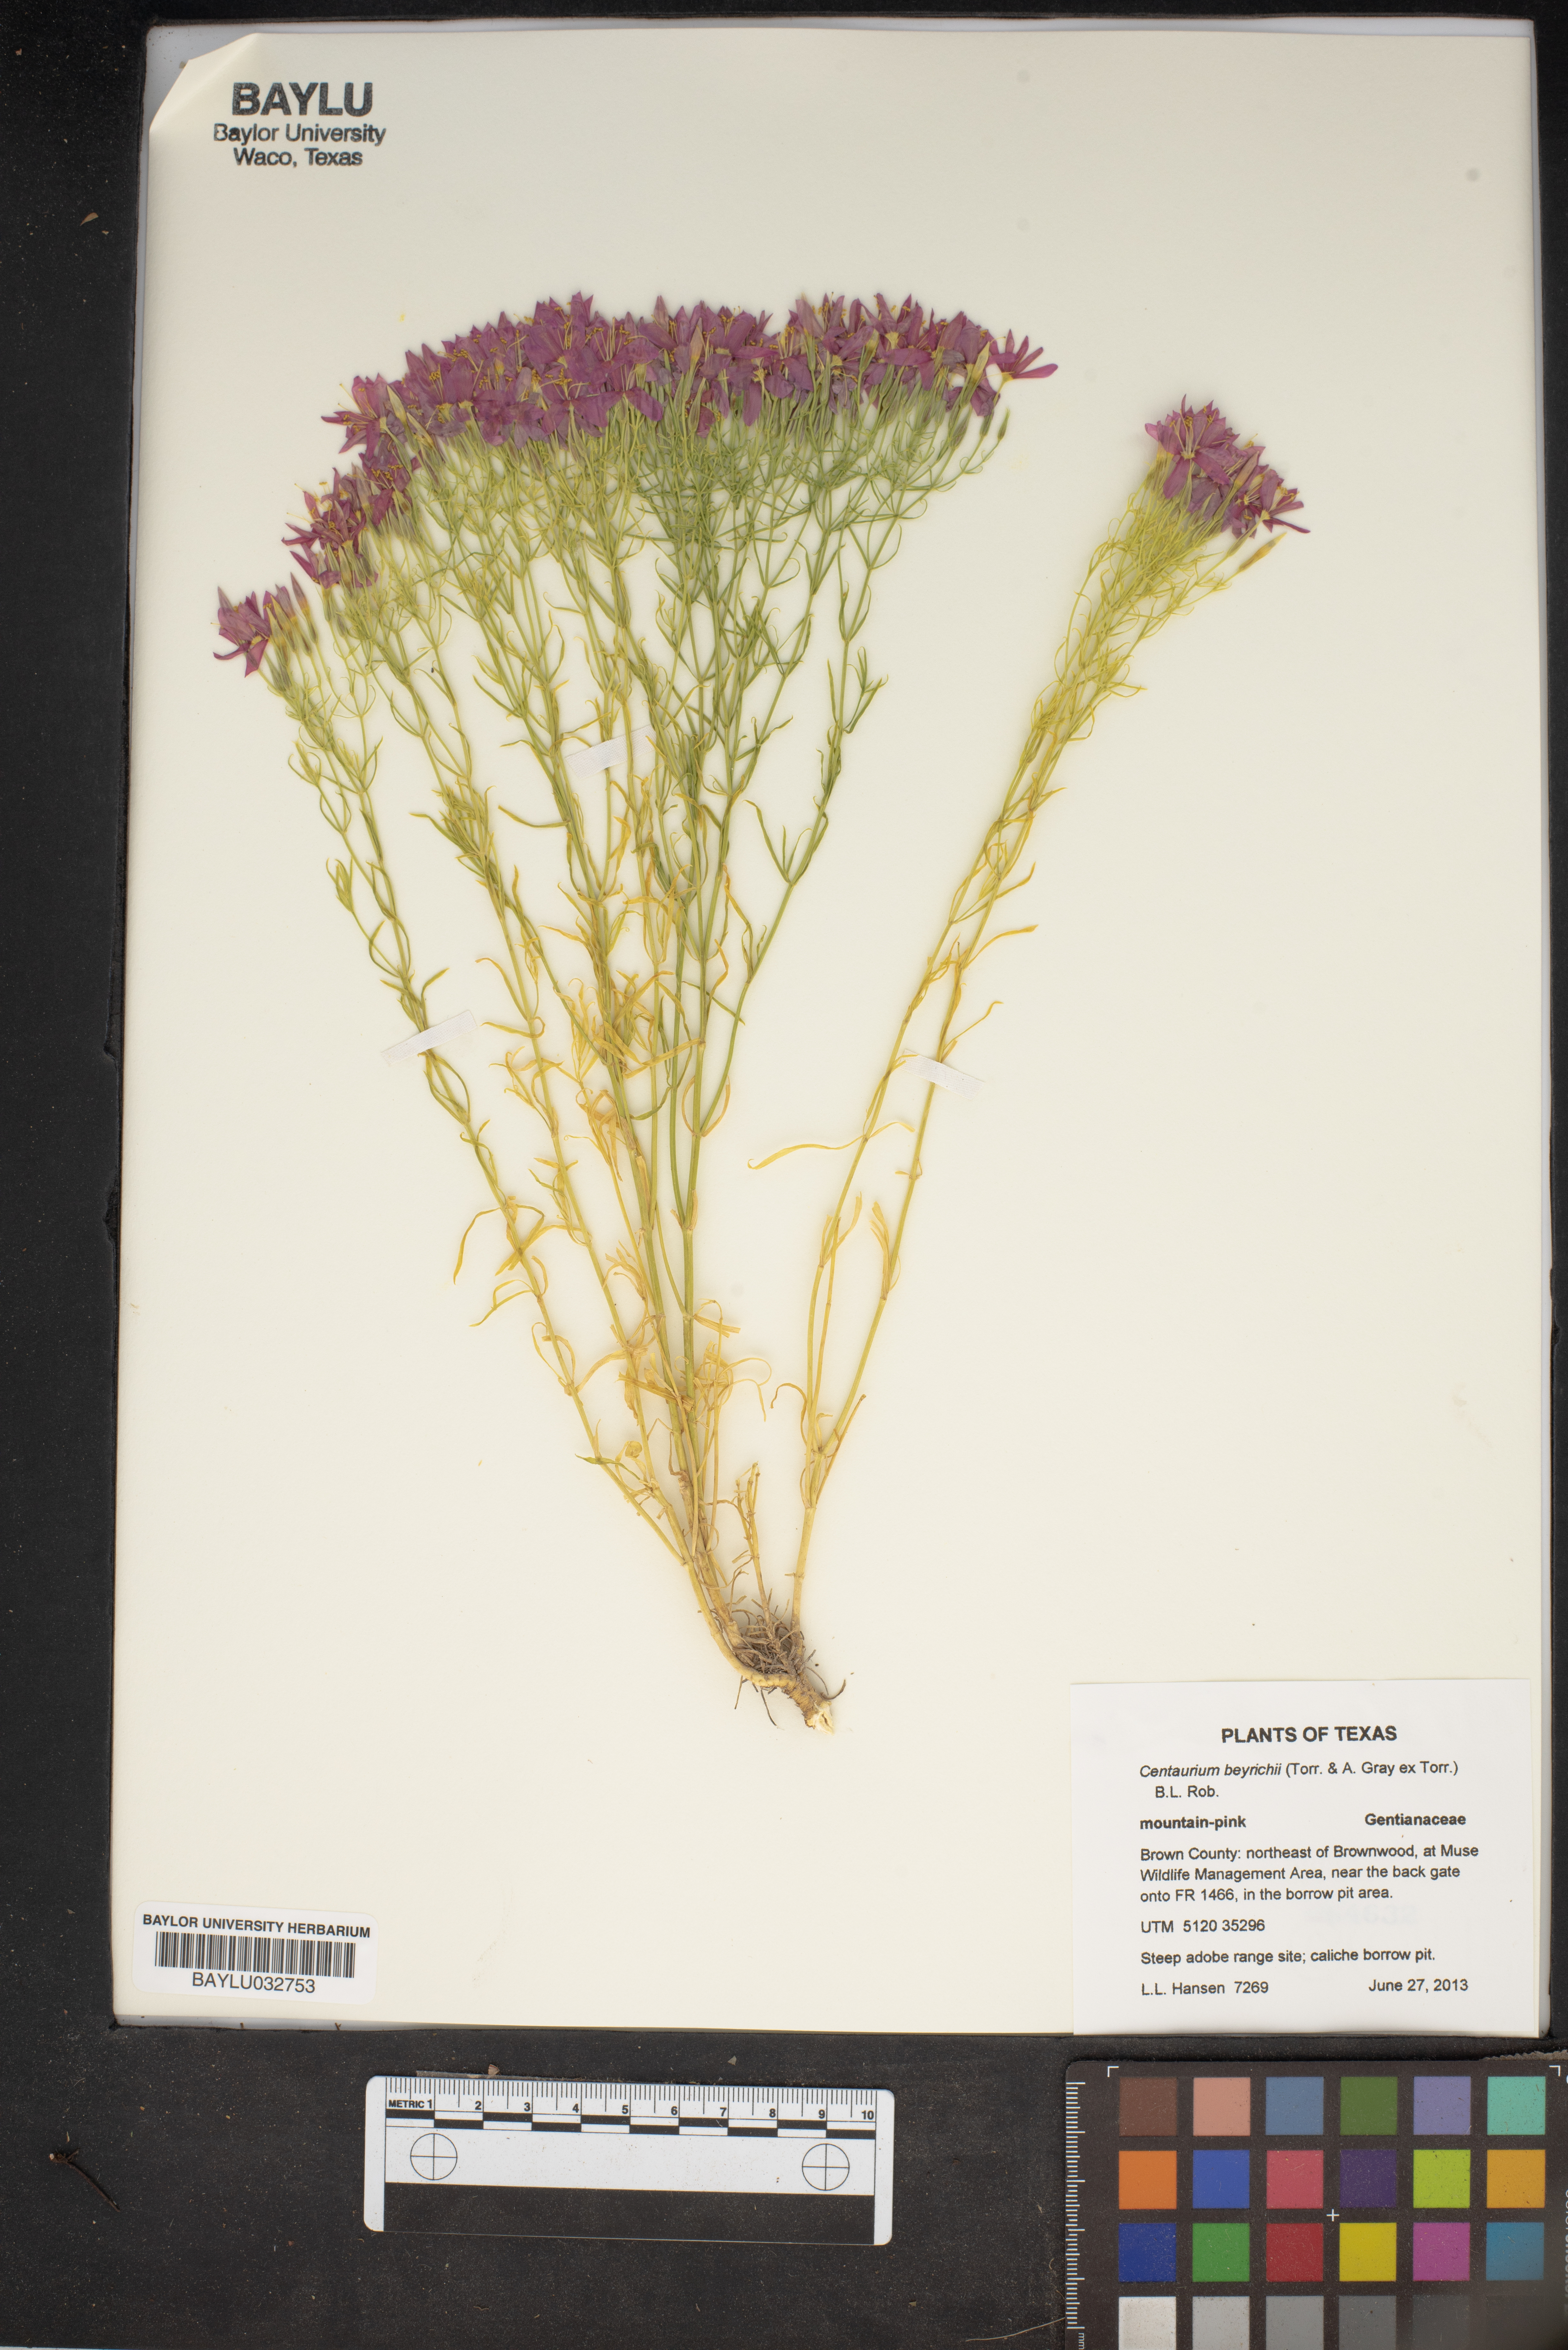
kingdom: Plantae
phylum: Tracheophyta
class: Magnoliopsida
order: Gentianales
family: Gentianaceae
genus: Zeltnera
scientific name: Zeltnera beyrichii
